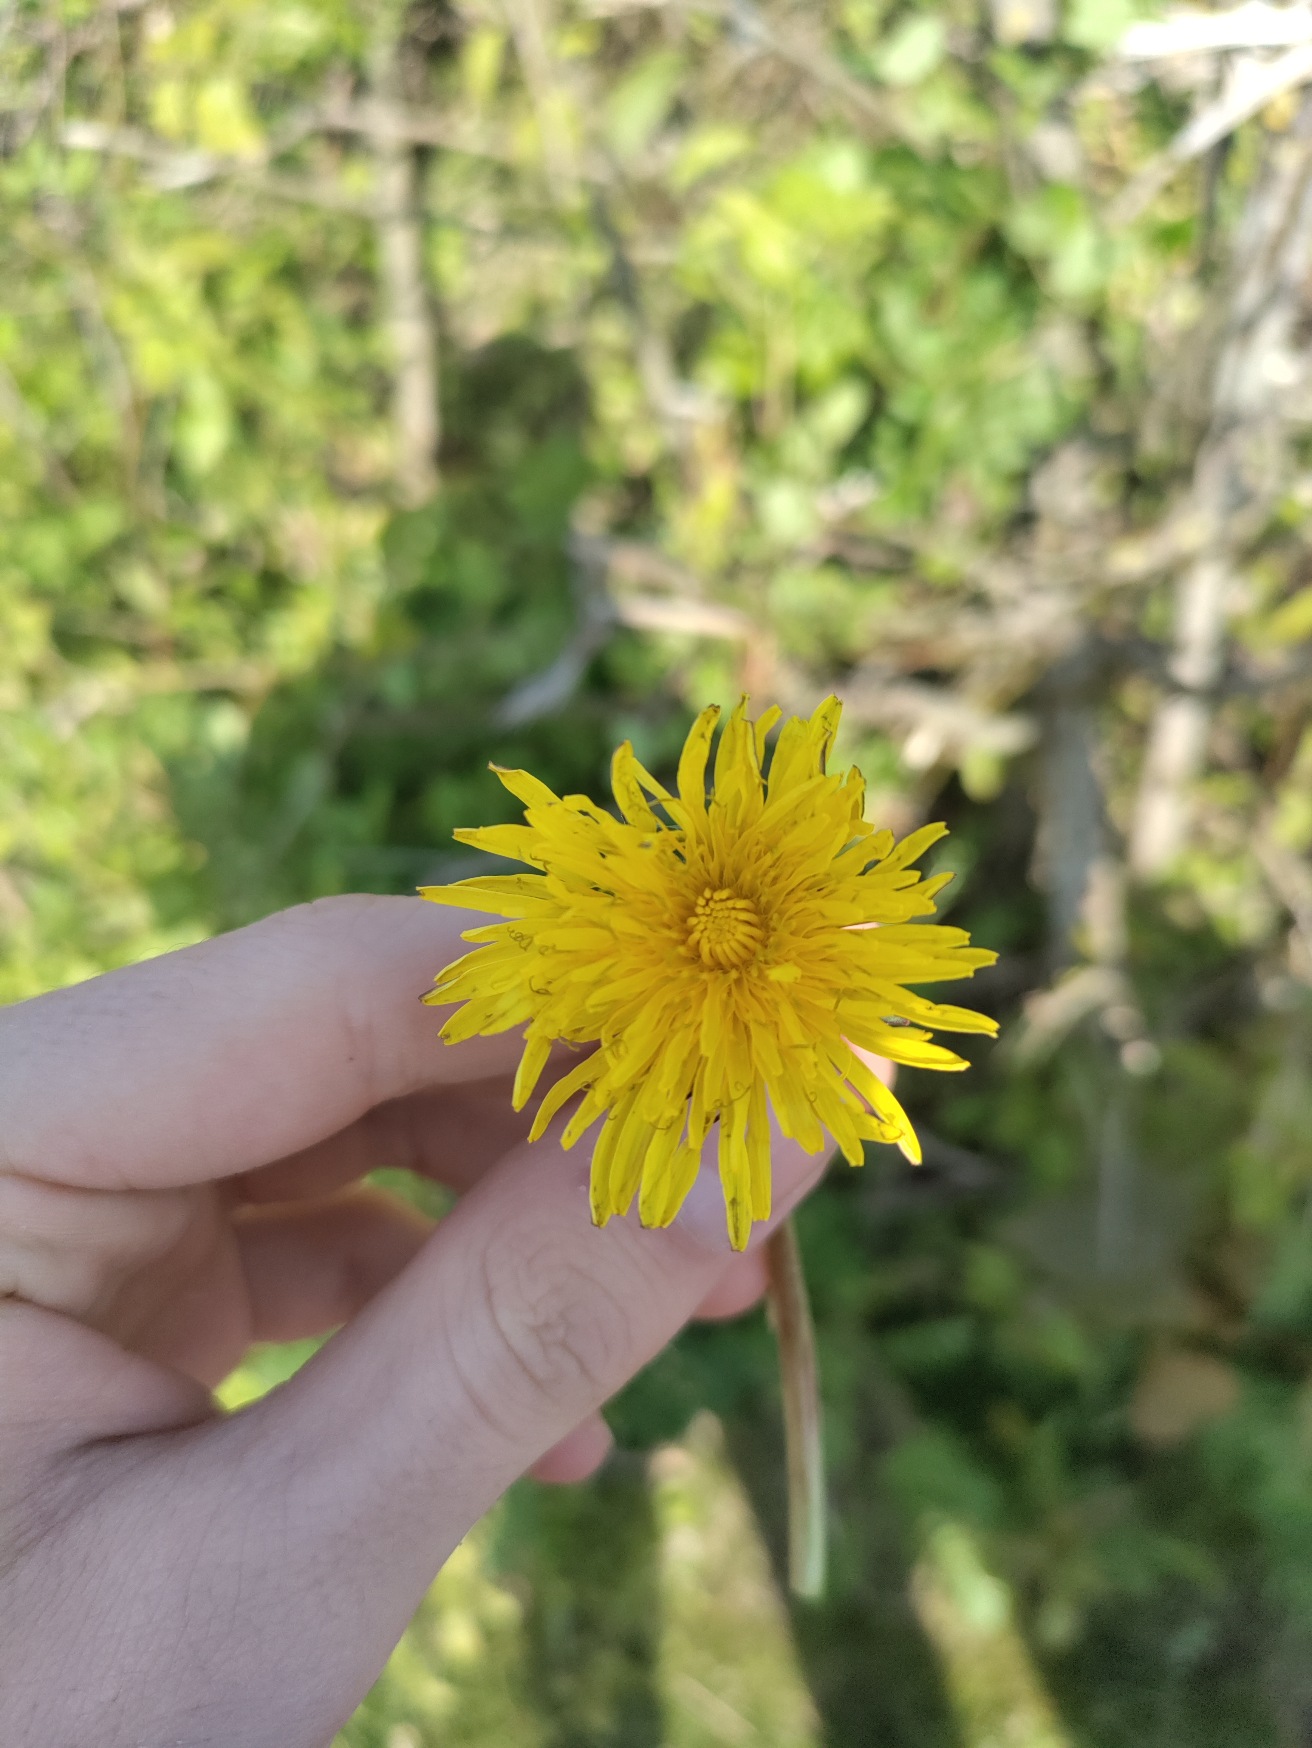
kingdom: Plantae
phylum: Tracheophyta
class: Magnoliopsida
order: Asterales
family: Asteraceae
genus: Taraxacum
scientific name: Taraxacum
